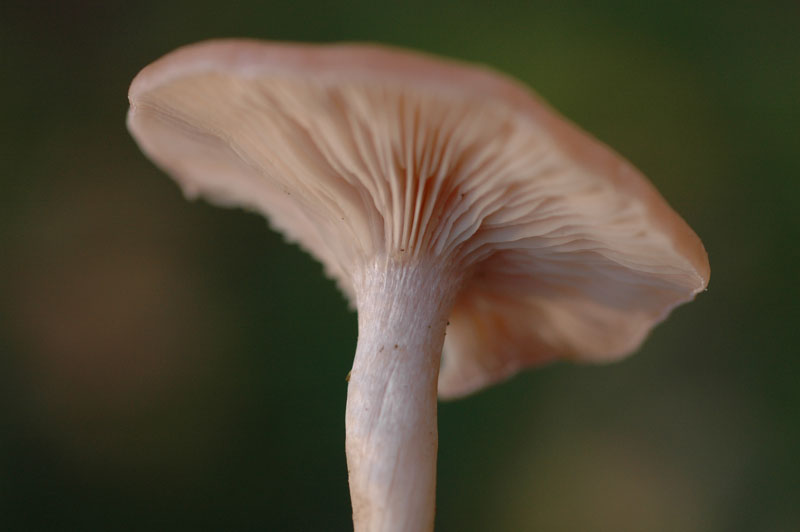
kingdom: Fungi
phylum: Basidiomycota
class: Agaricomycetes
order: Agaricales
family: Tricholomataceae
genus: Clitocybe
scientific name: Clitocybe diatreta
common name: kødfarvet tragthat
